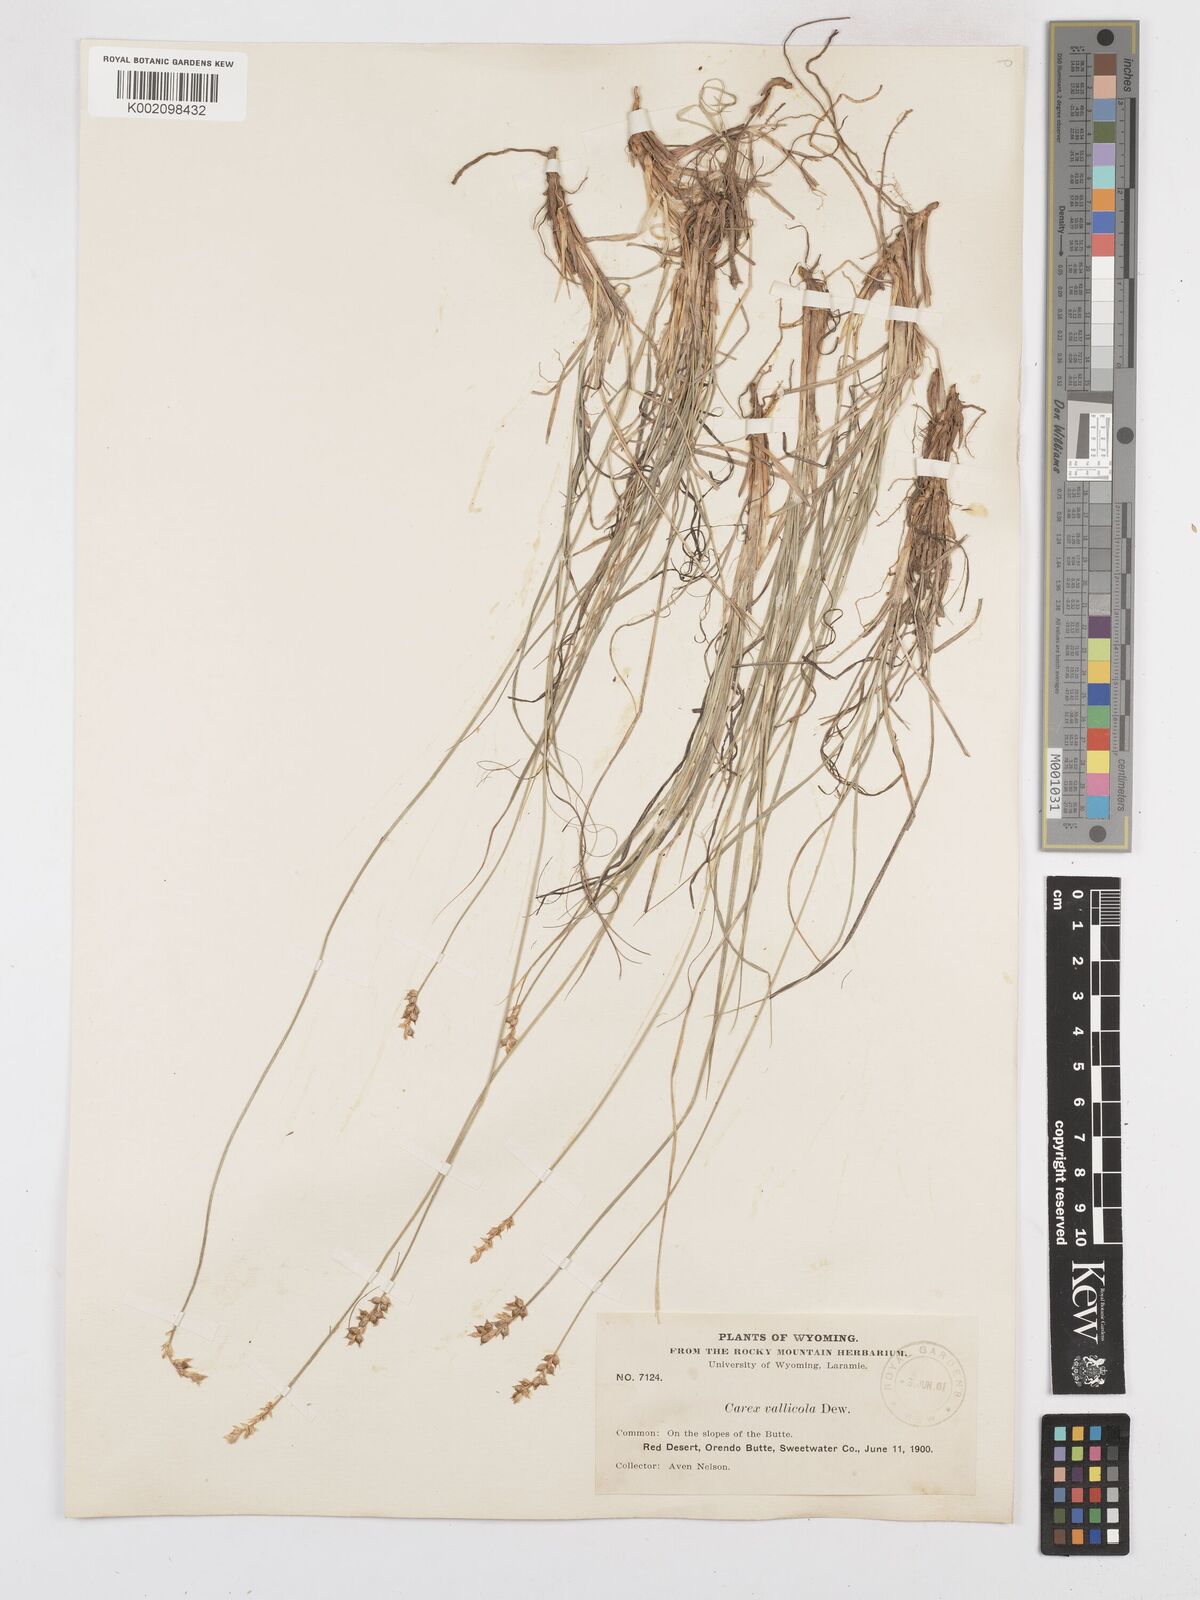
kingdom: Plantae
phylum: Tracheophyta
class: Liliopsida
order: Poales
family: Cyperaceae
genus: Carex
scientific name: Carex vallicola
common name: Valley sedge
